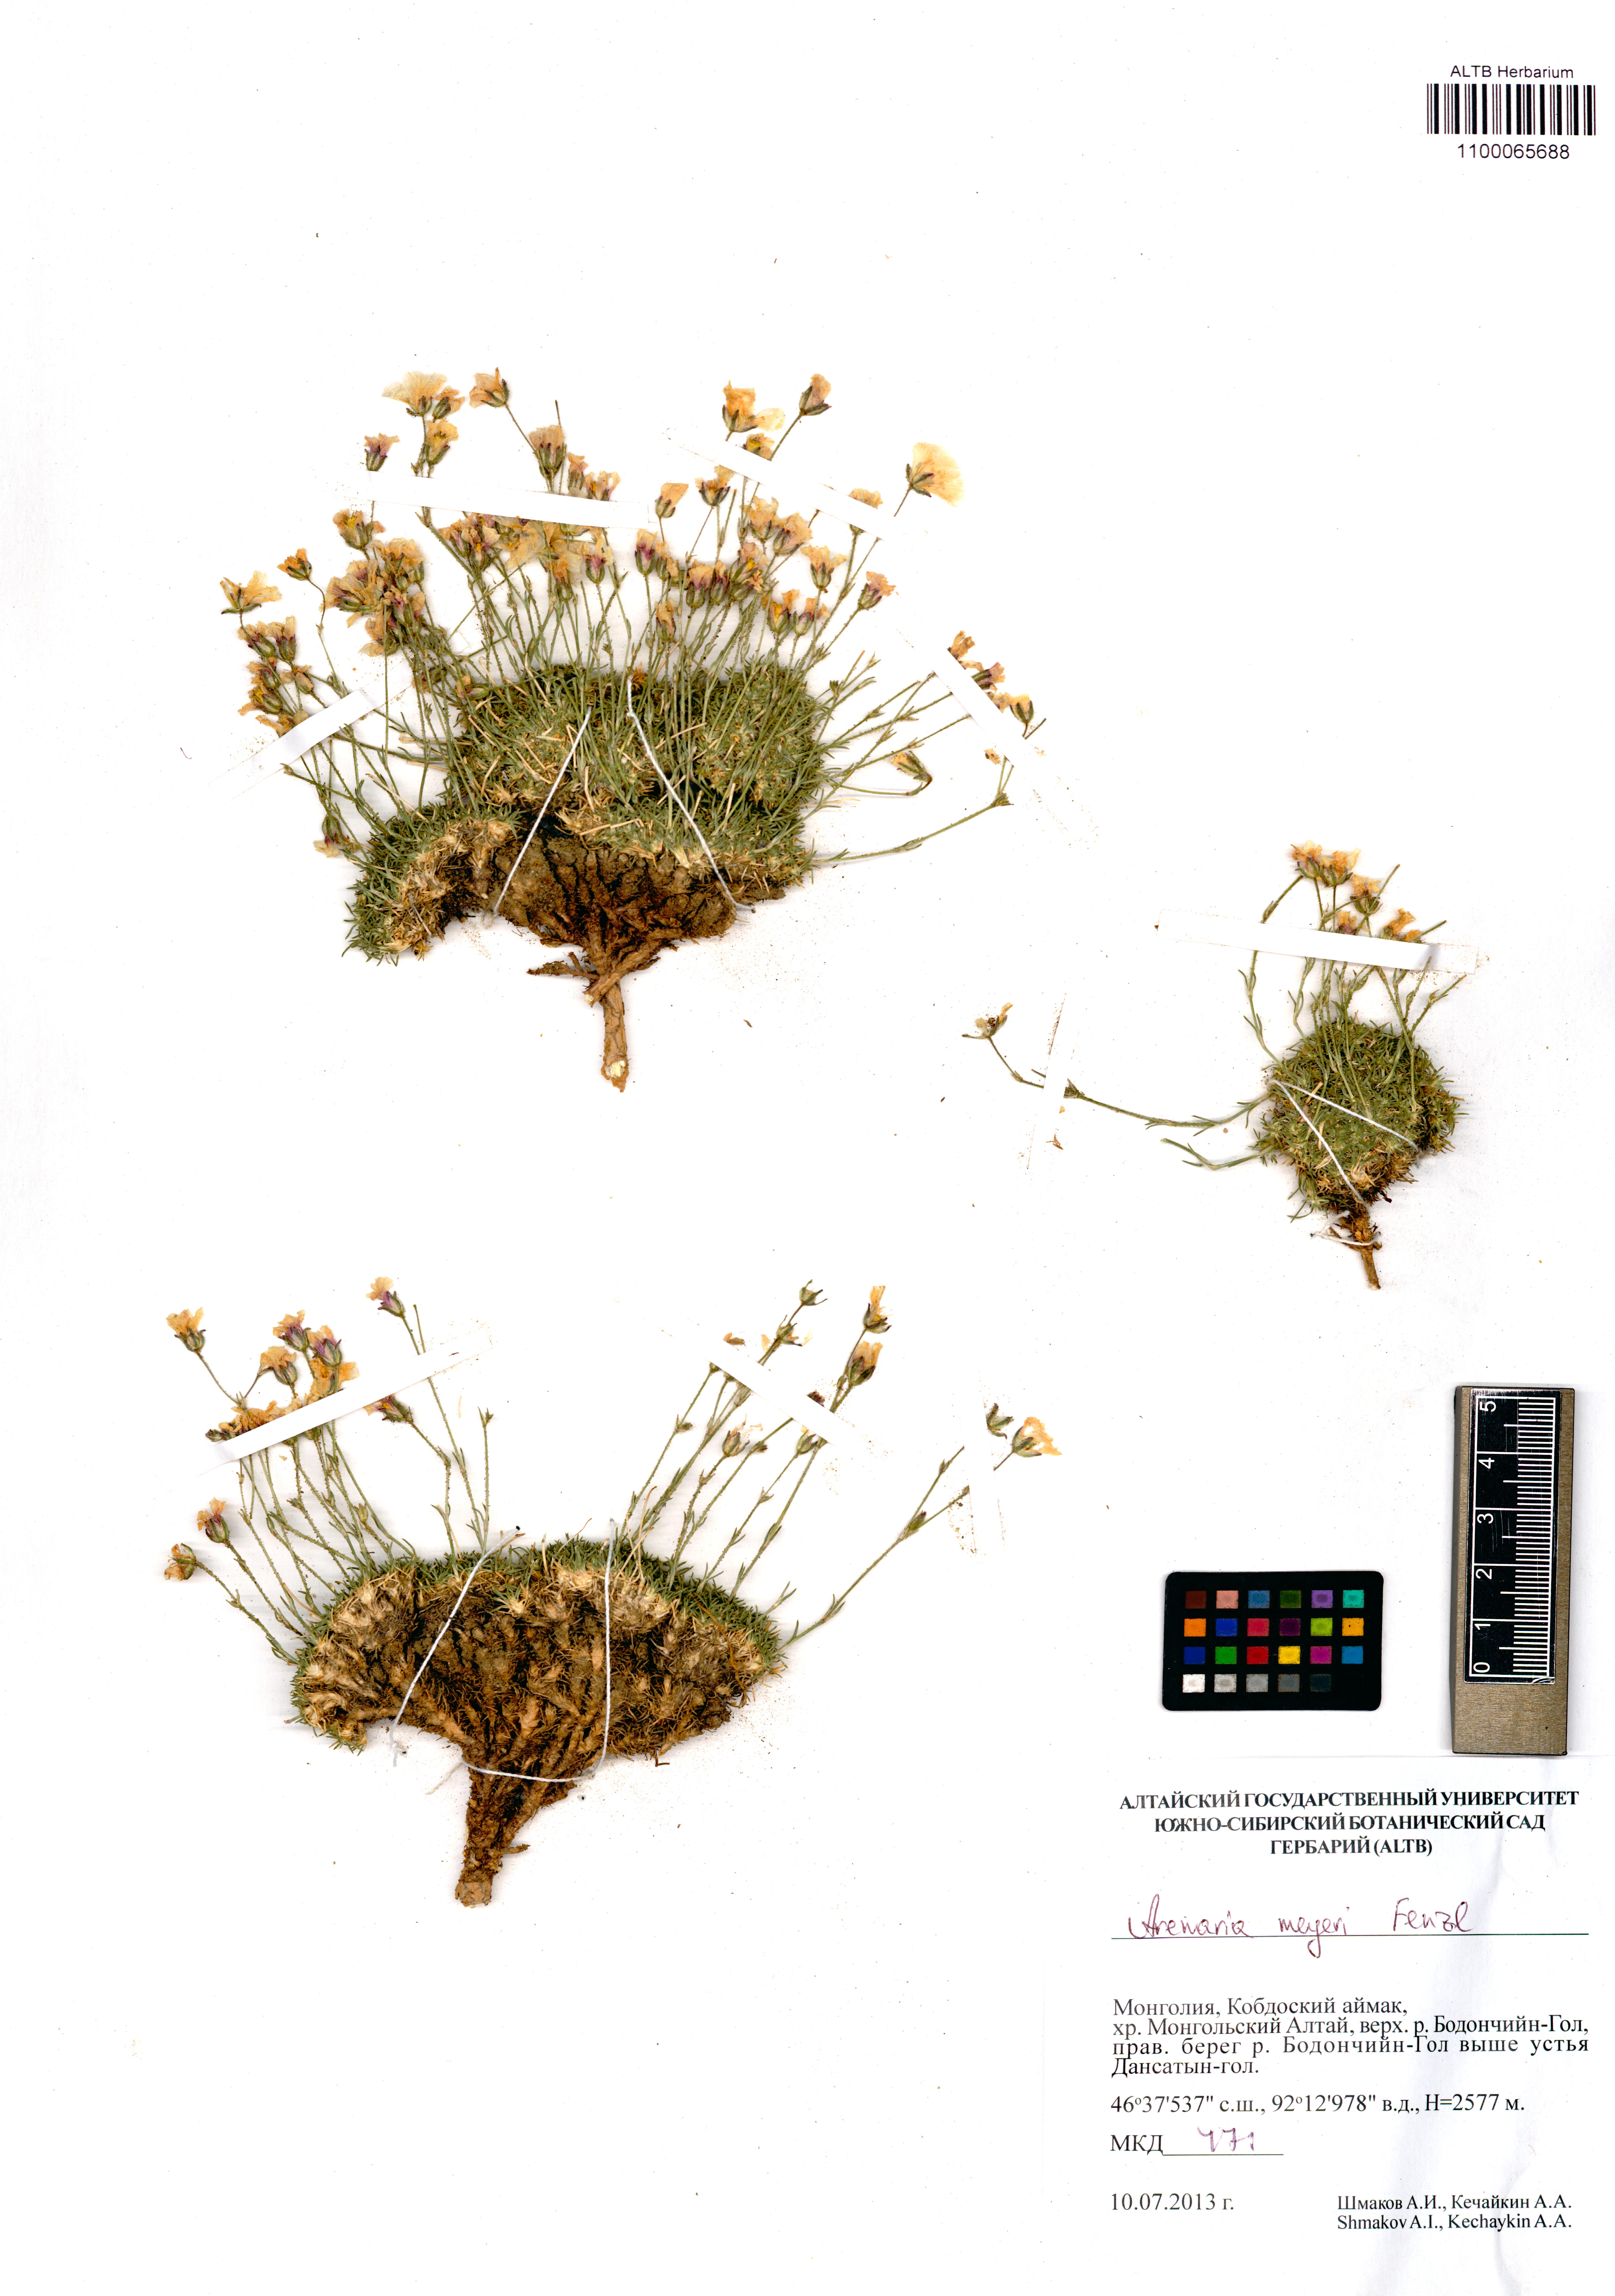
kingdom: Plantae
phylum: Tracheophyta
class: Magnoliopsida
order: Caryophyllales
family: Caryophyllaceae
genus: Eremogone
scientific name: Eremogone meyeri
